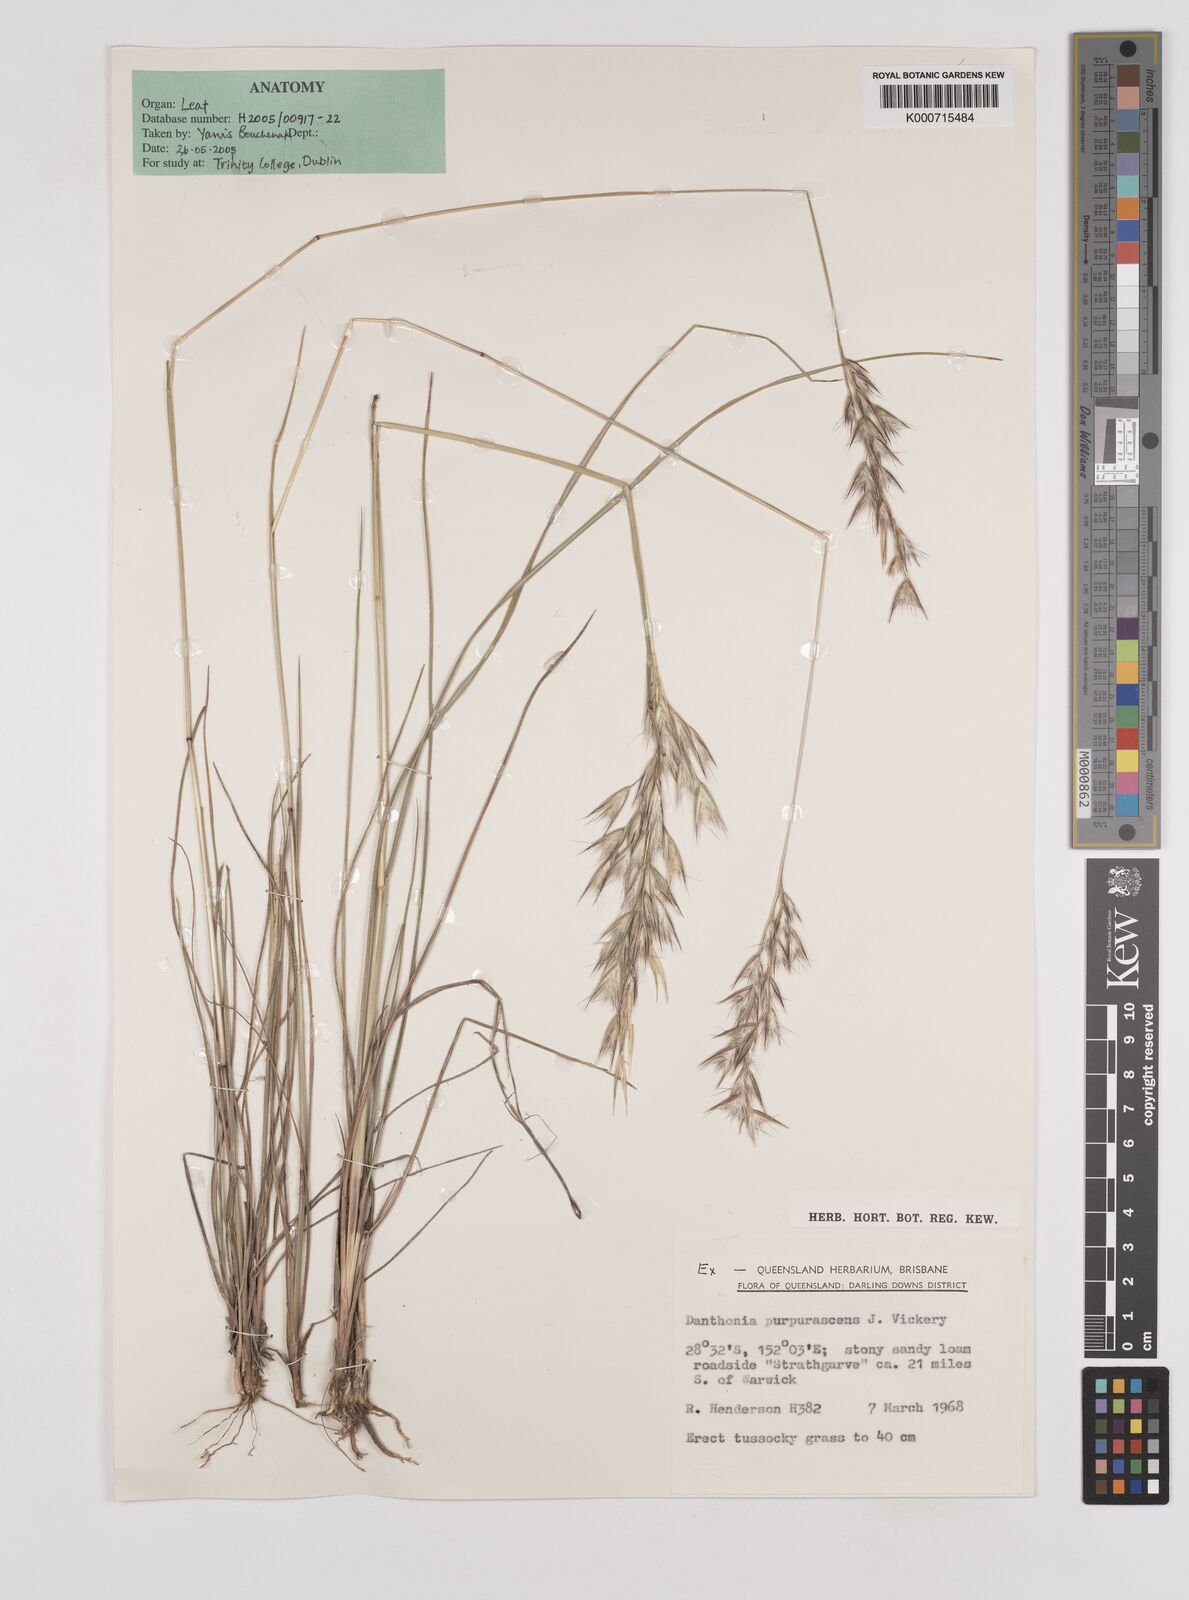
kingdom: Plantae
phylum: Tracheophyta
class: Liliopsida
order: Poales
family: Poaceae
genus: Rytidosperma
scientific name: Rytidosperma tenuius
